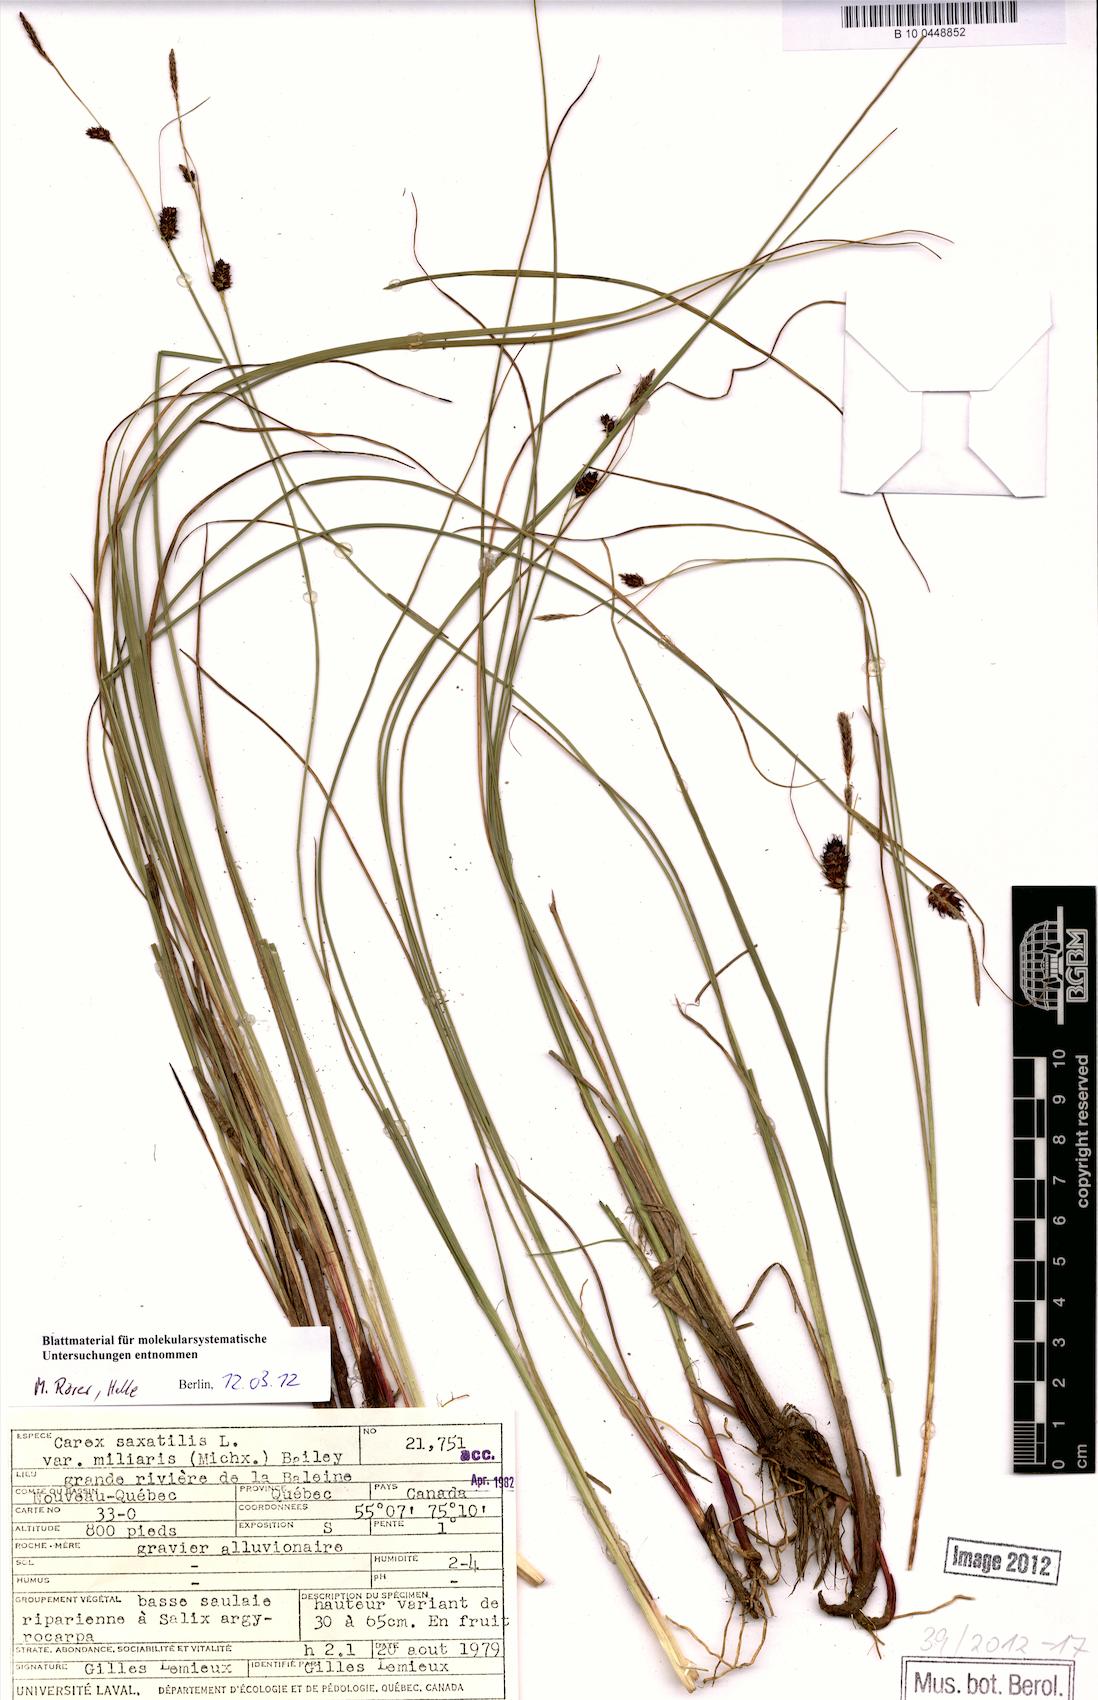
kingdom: Plantae
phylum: Tracheophyta
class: Liliopsida
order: Poales
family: Cyperaceae
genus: Carex
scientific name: Carex miliaris
